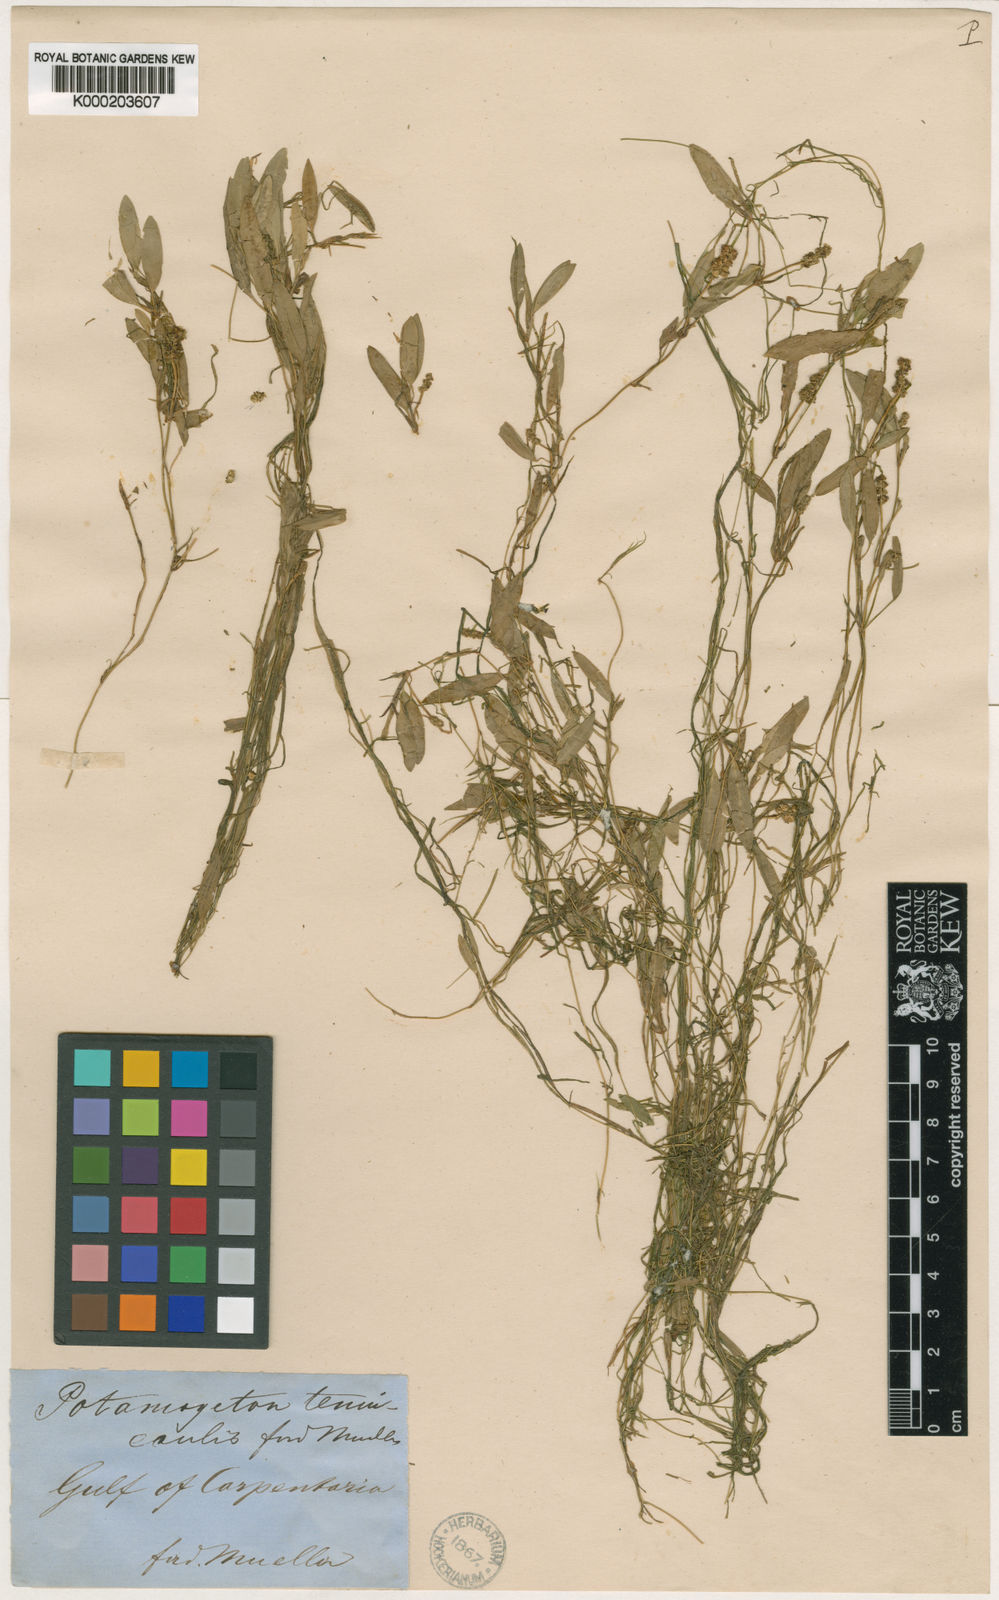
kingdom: Plantae
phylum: Tracheophyta
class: Liliopsida
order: Alismatales
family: Potamogetonaceae
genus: Potamogeton
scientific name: Potamogeton octandrus
